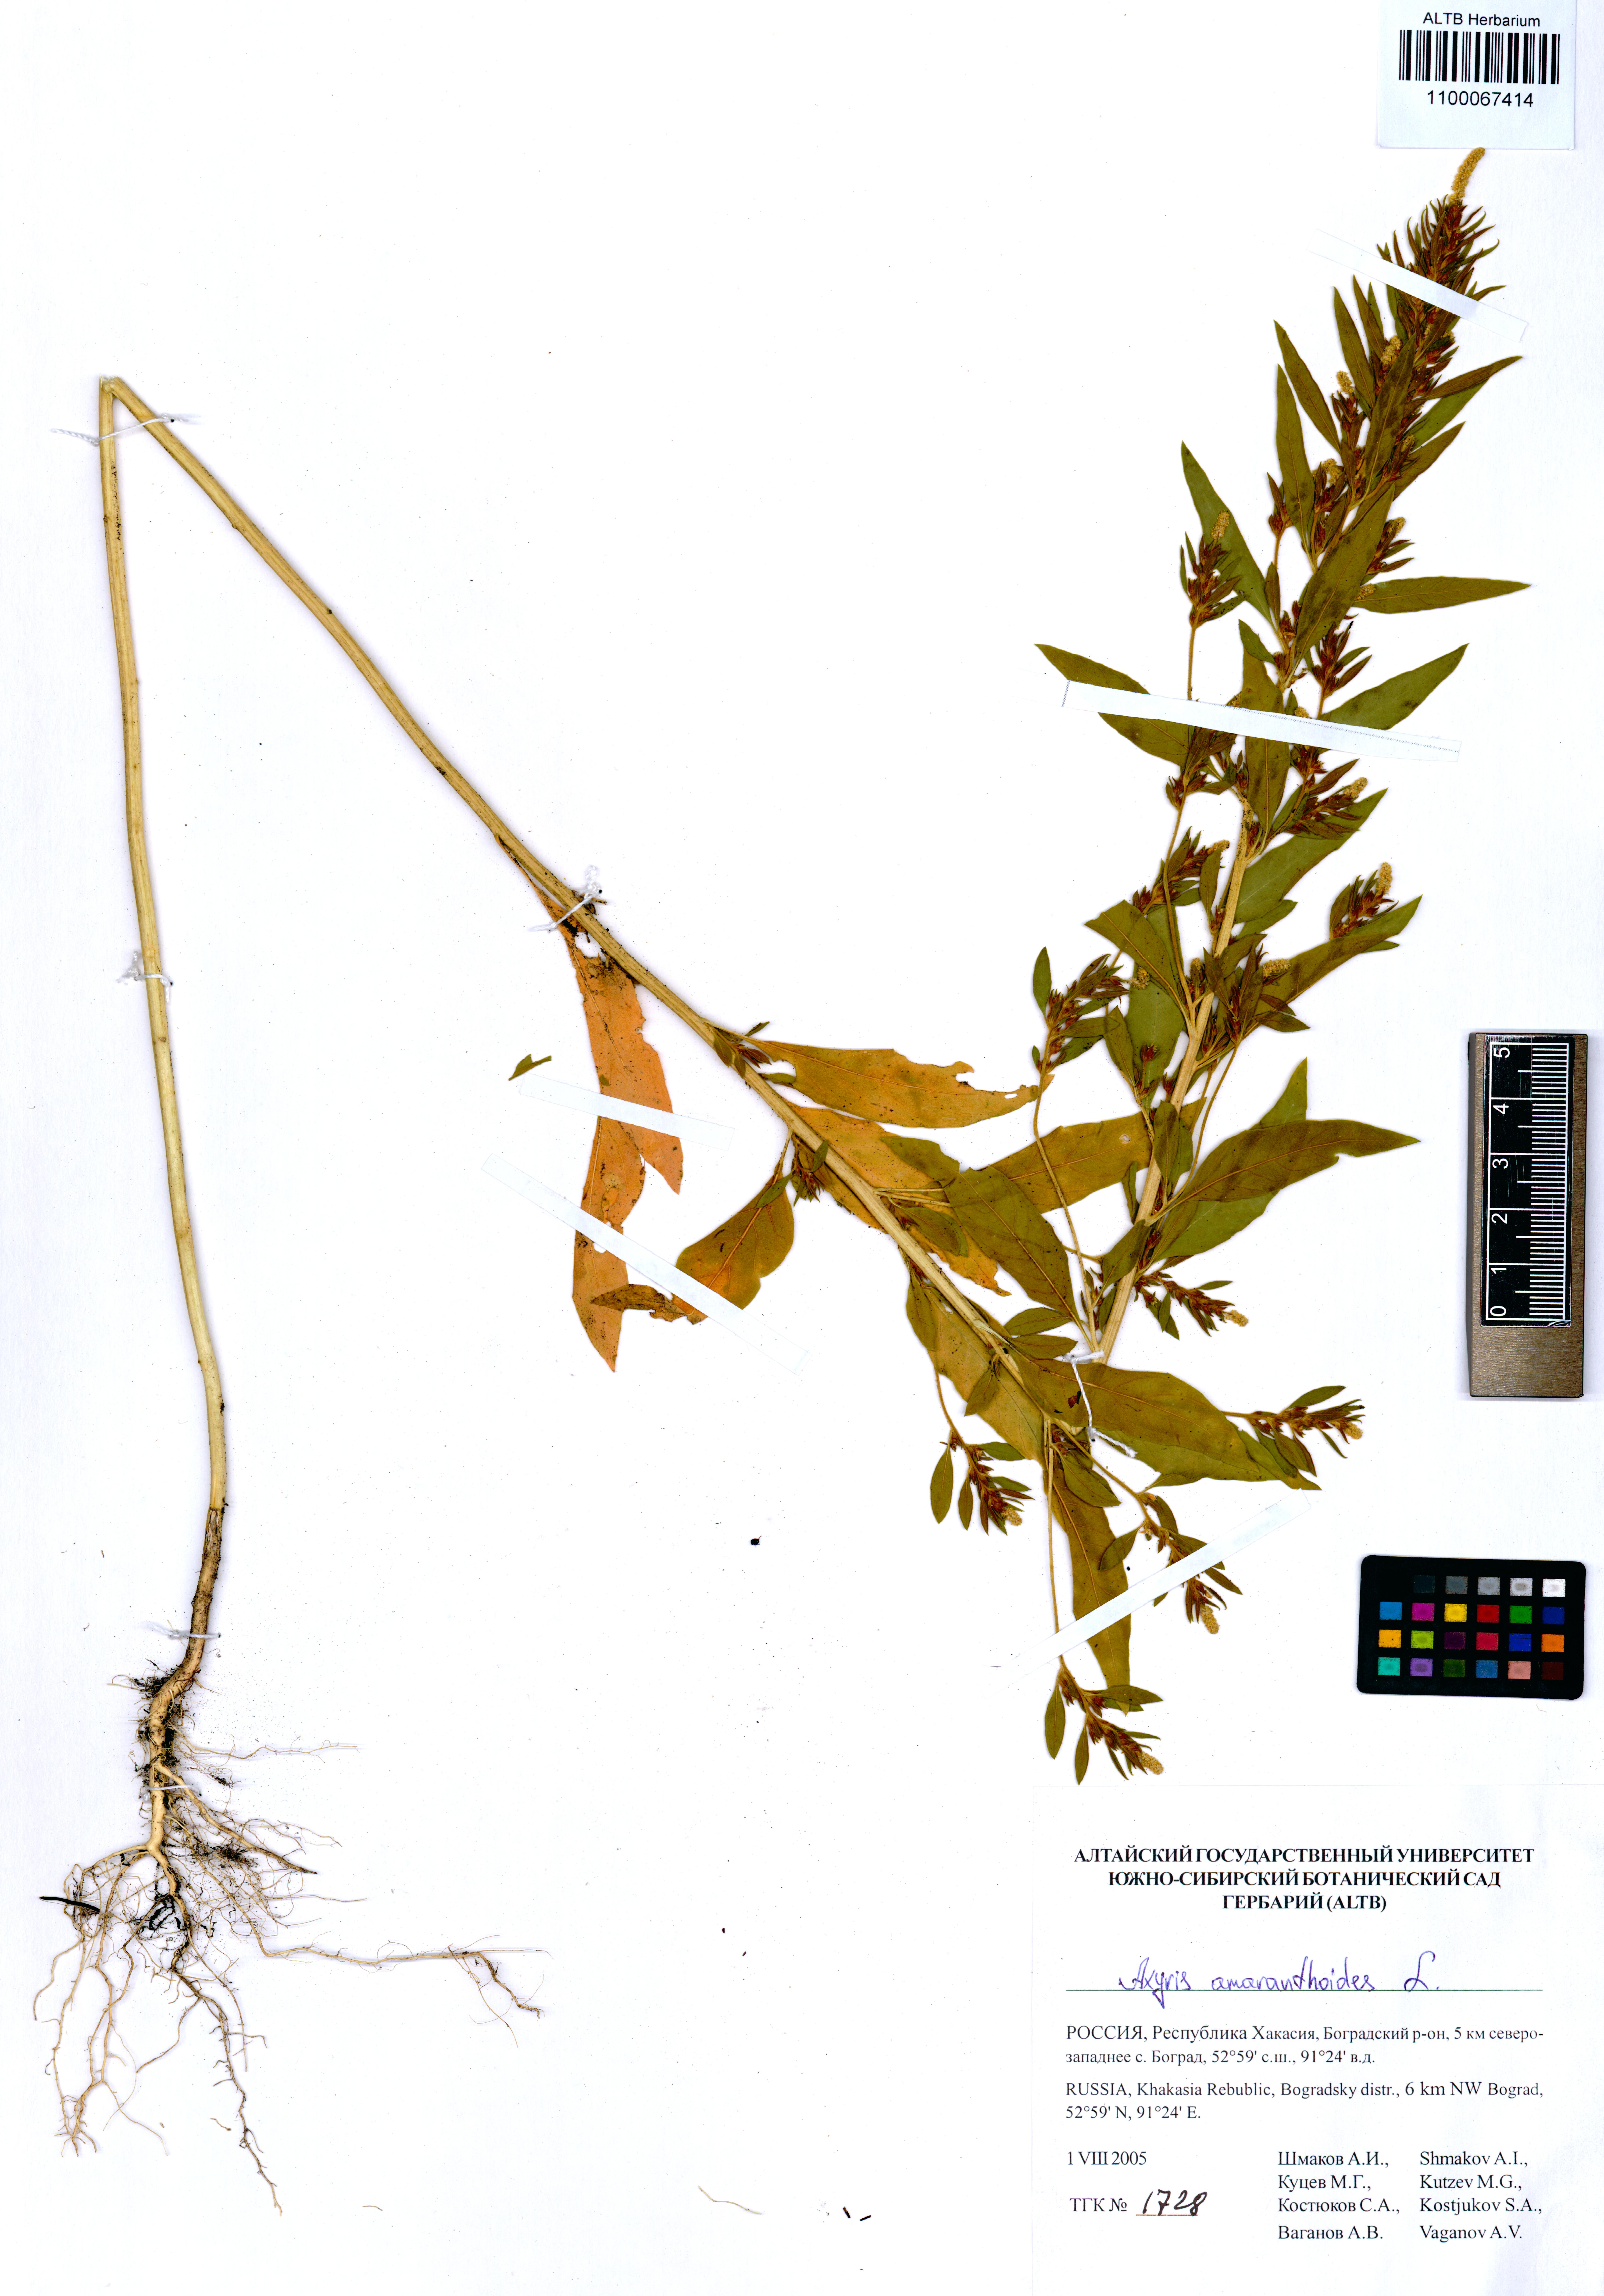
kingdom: Plantae
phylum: Tracheophyta
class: Magnoliopsida
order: Caryophyllales
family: Amaranthaceae
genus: Axyris
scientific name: Axyris amaranthoides
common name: Russian pigweed
